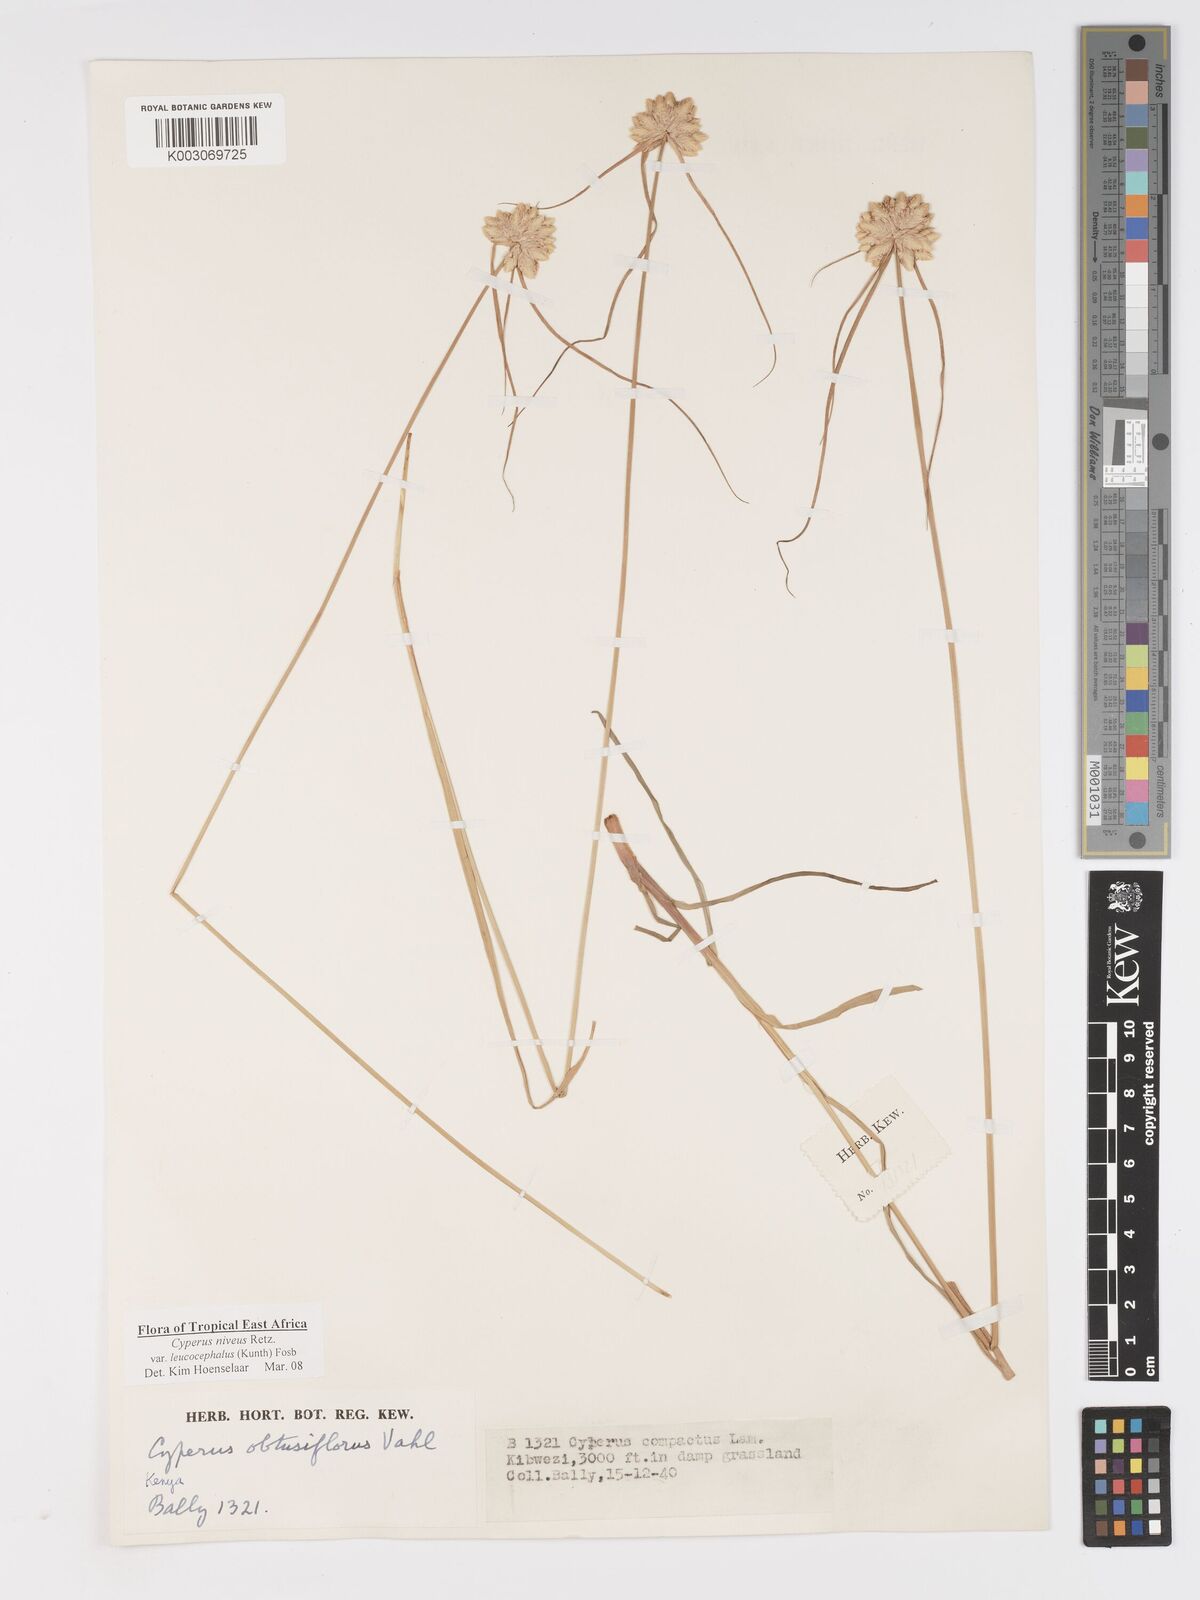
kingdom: Plantae
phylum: Tracheophyta
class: Liliopsida
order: Poales
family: Cyperaceae
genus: Cyperus
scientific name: Cyperus niveus
